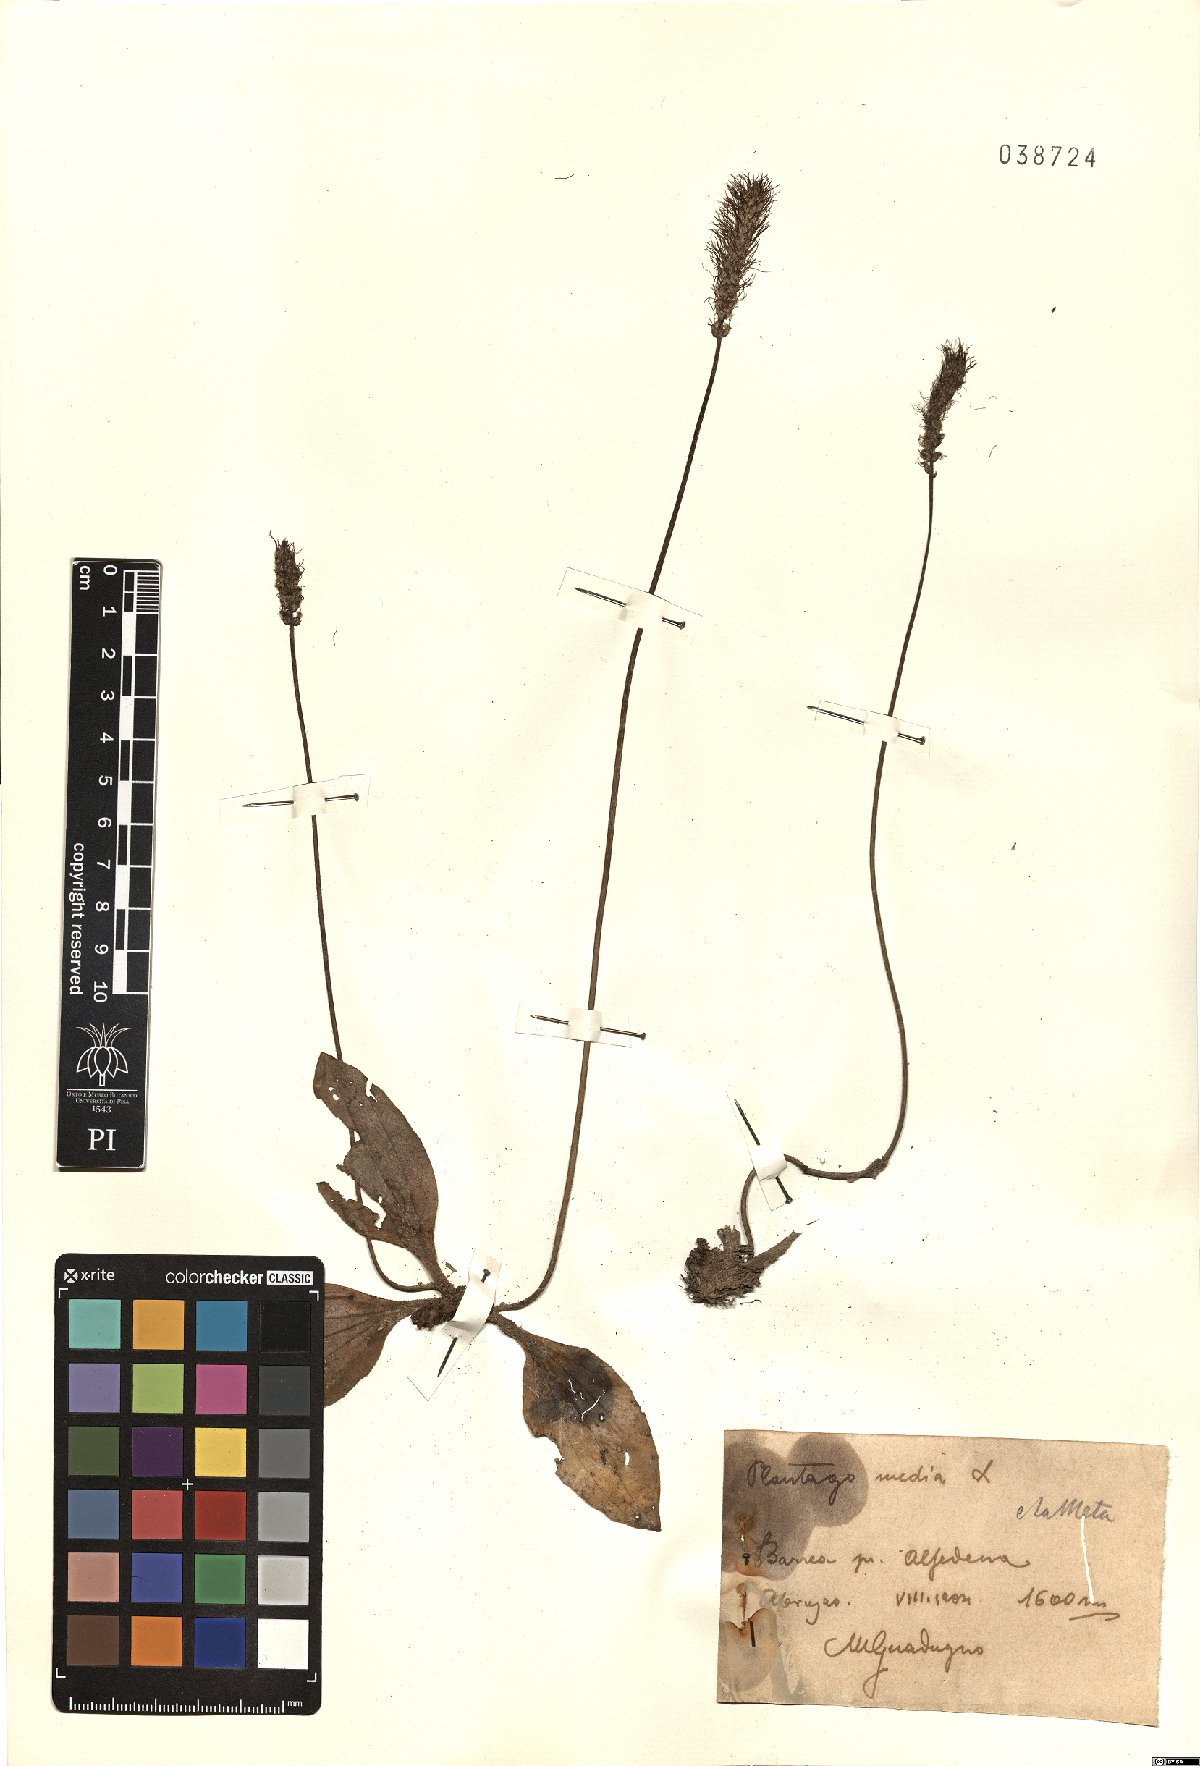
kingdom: Plantae
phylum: Tracheophyta
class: Magnoliopsida
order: Lamiales
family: Plantaginaceae
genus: Plantago
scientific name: Plantago media
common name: Hoary plantain
